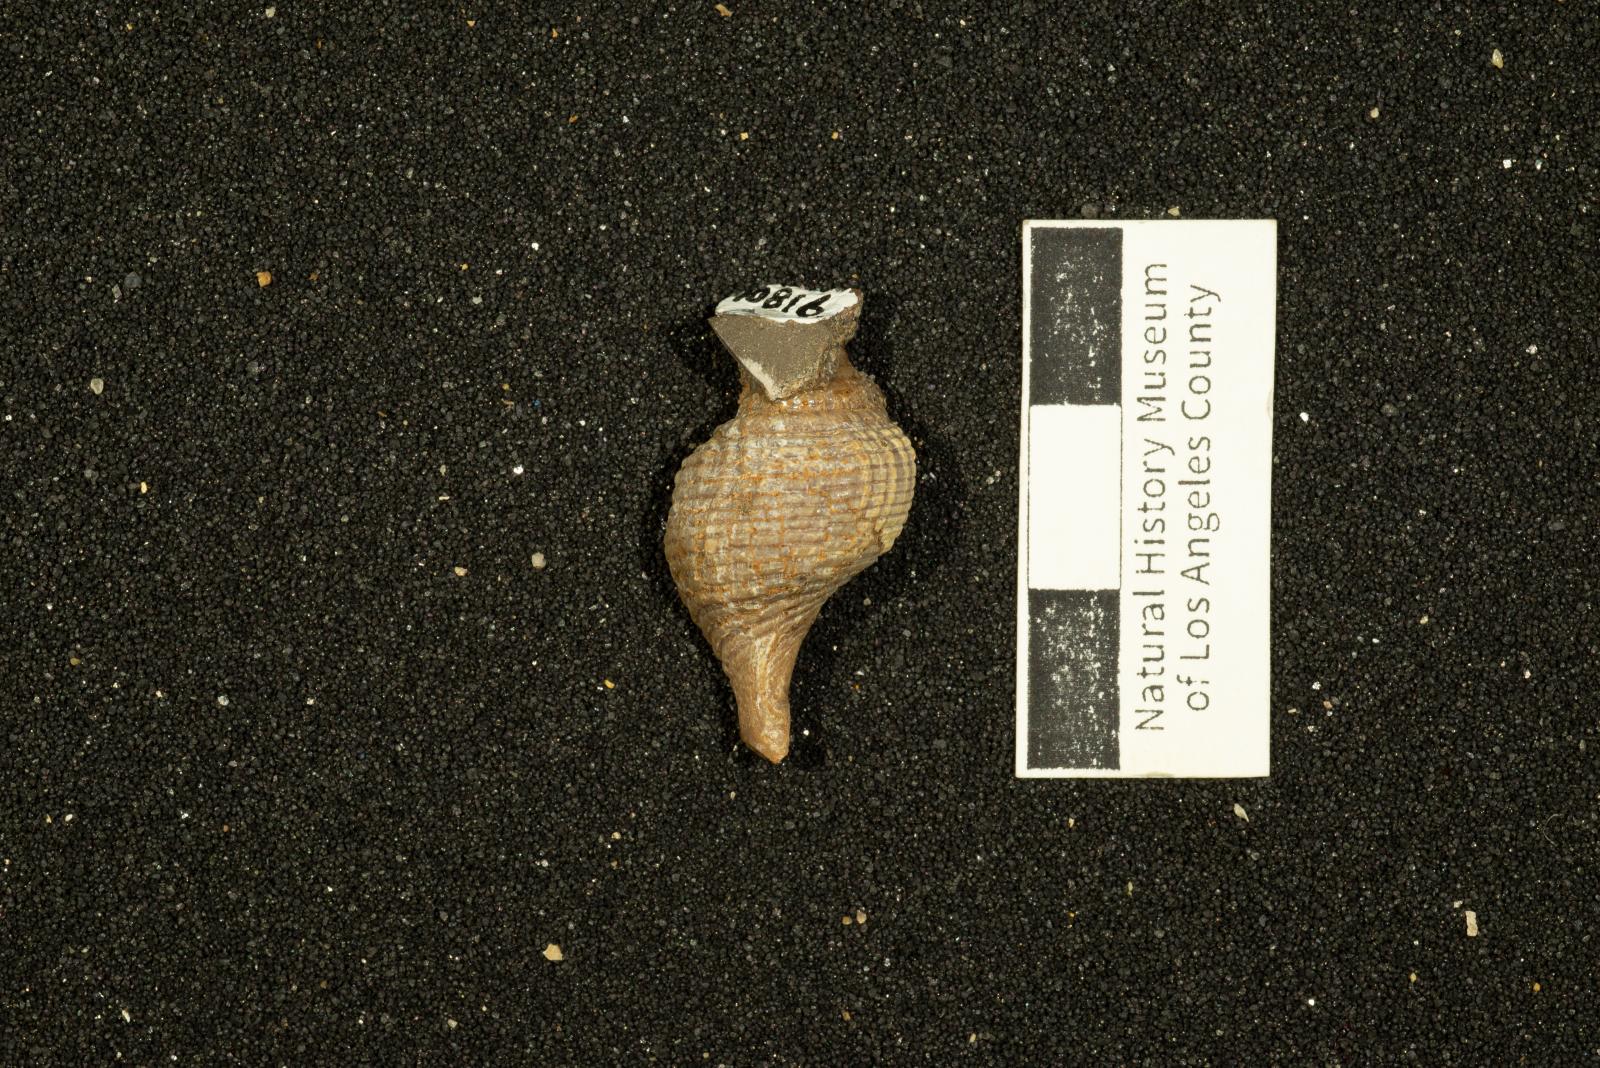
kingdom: Animalia
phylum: Mollusca
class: Gastropoda
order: Neogastropoda
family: Fasciolariidae
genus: Plectocion
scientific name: Plectocion Neptunea curvirostris
